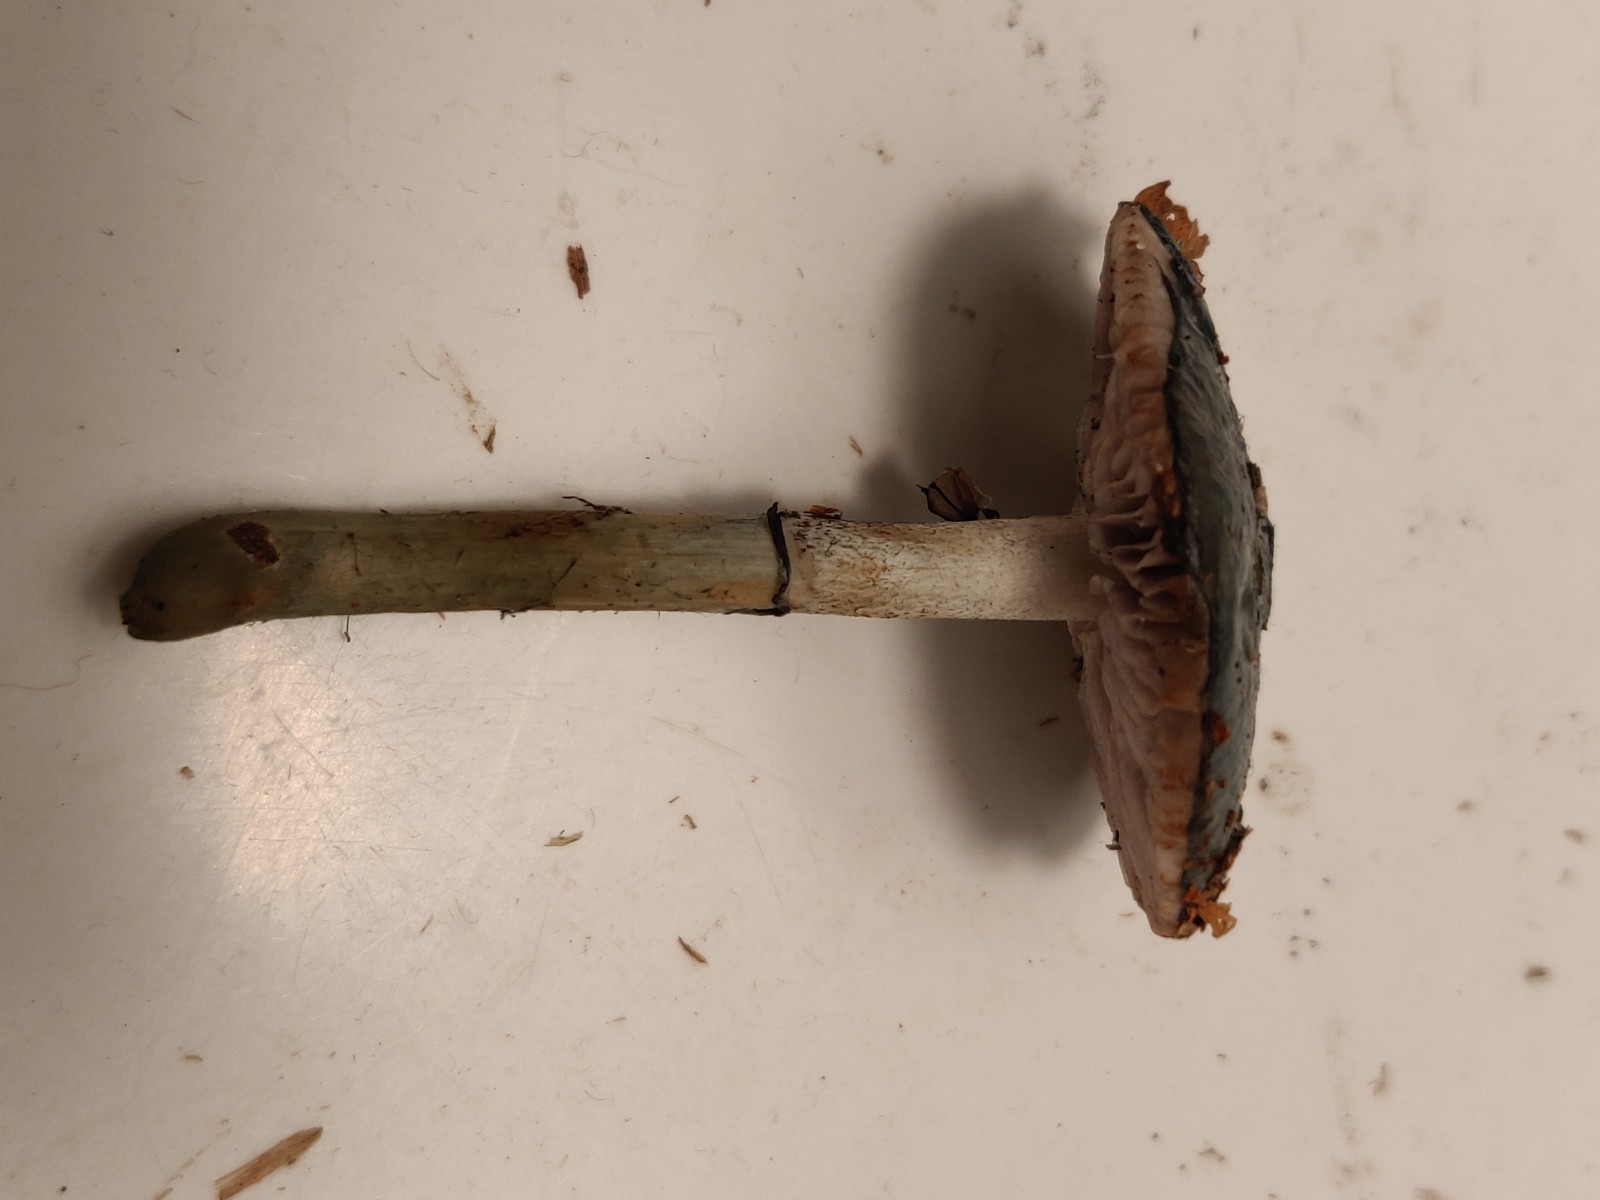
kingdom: Fungi
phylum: Basidiomycota
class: Agaricomycetes
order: Agaricales
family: Strophariaceae
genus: Stropharia
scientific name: Stropharia aeruginosa
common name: spanskgrøn bredblad
